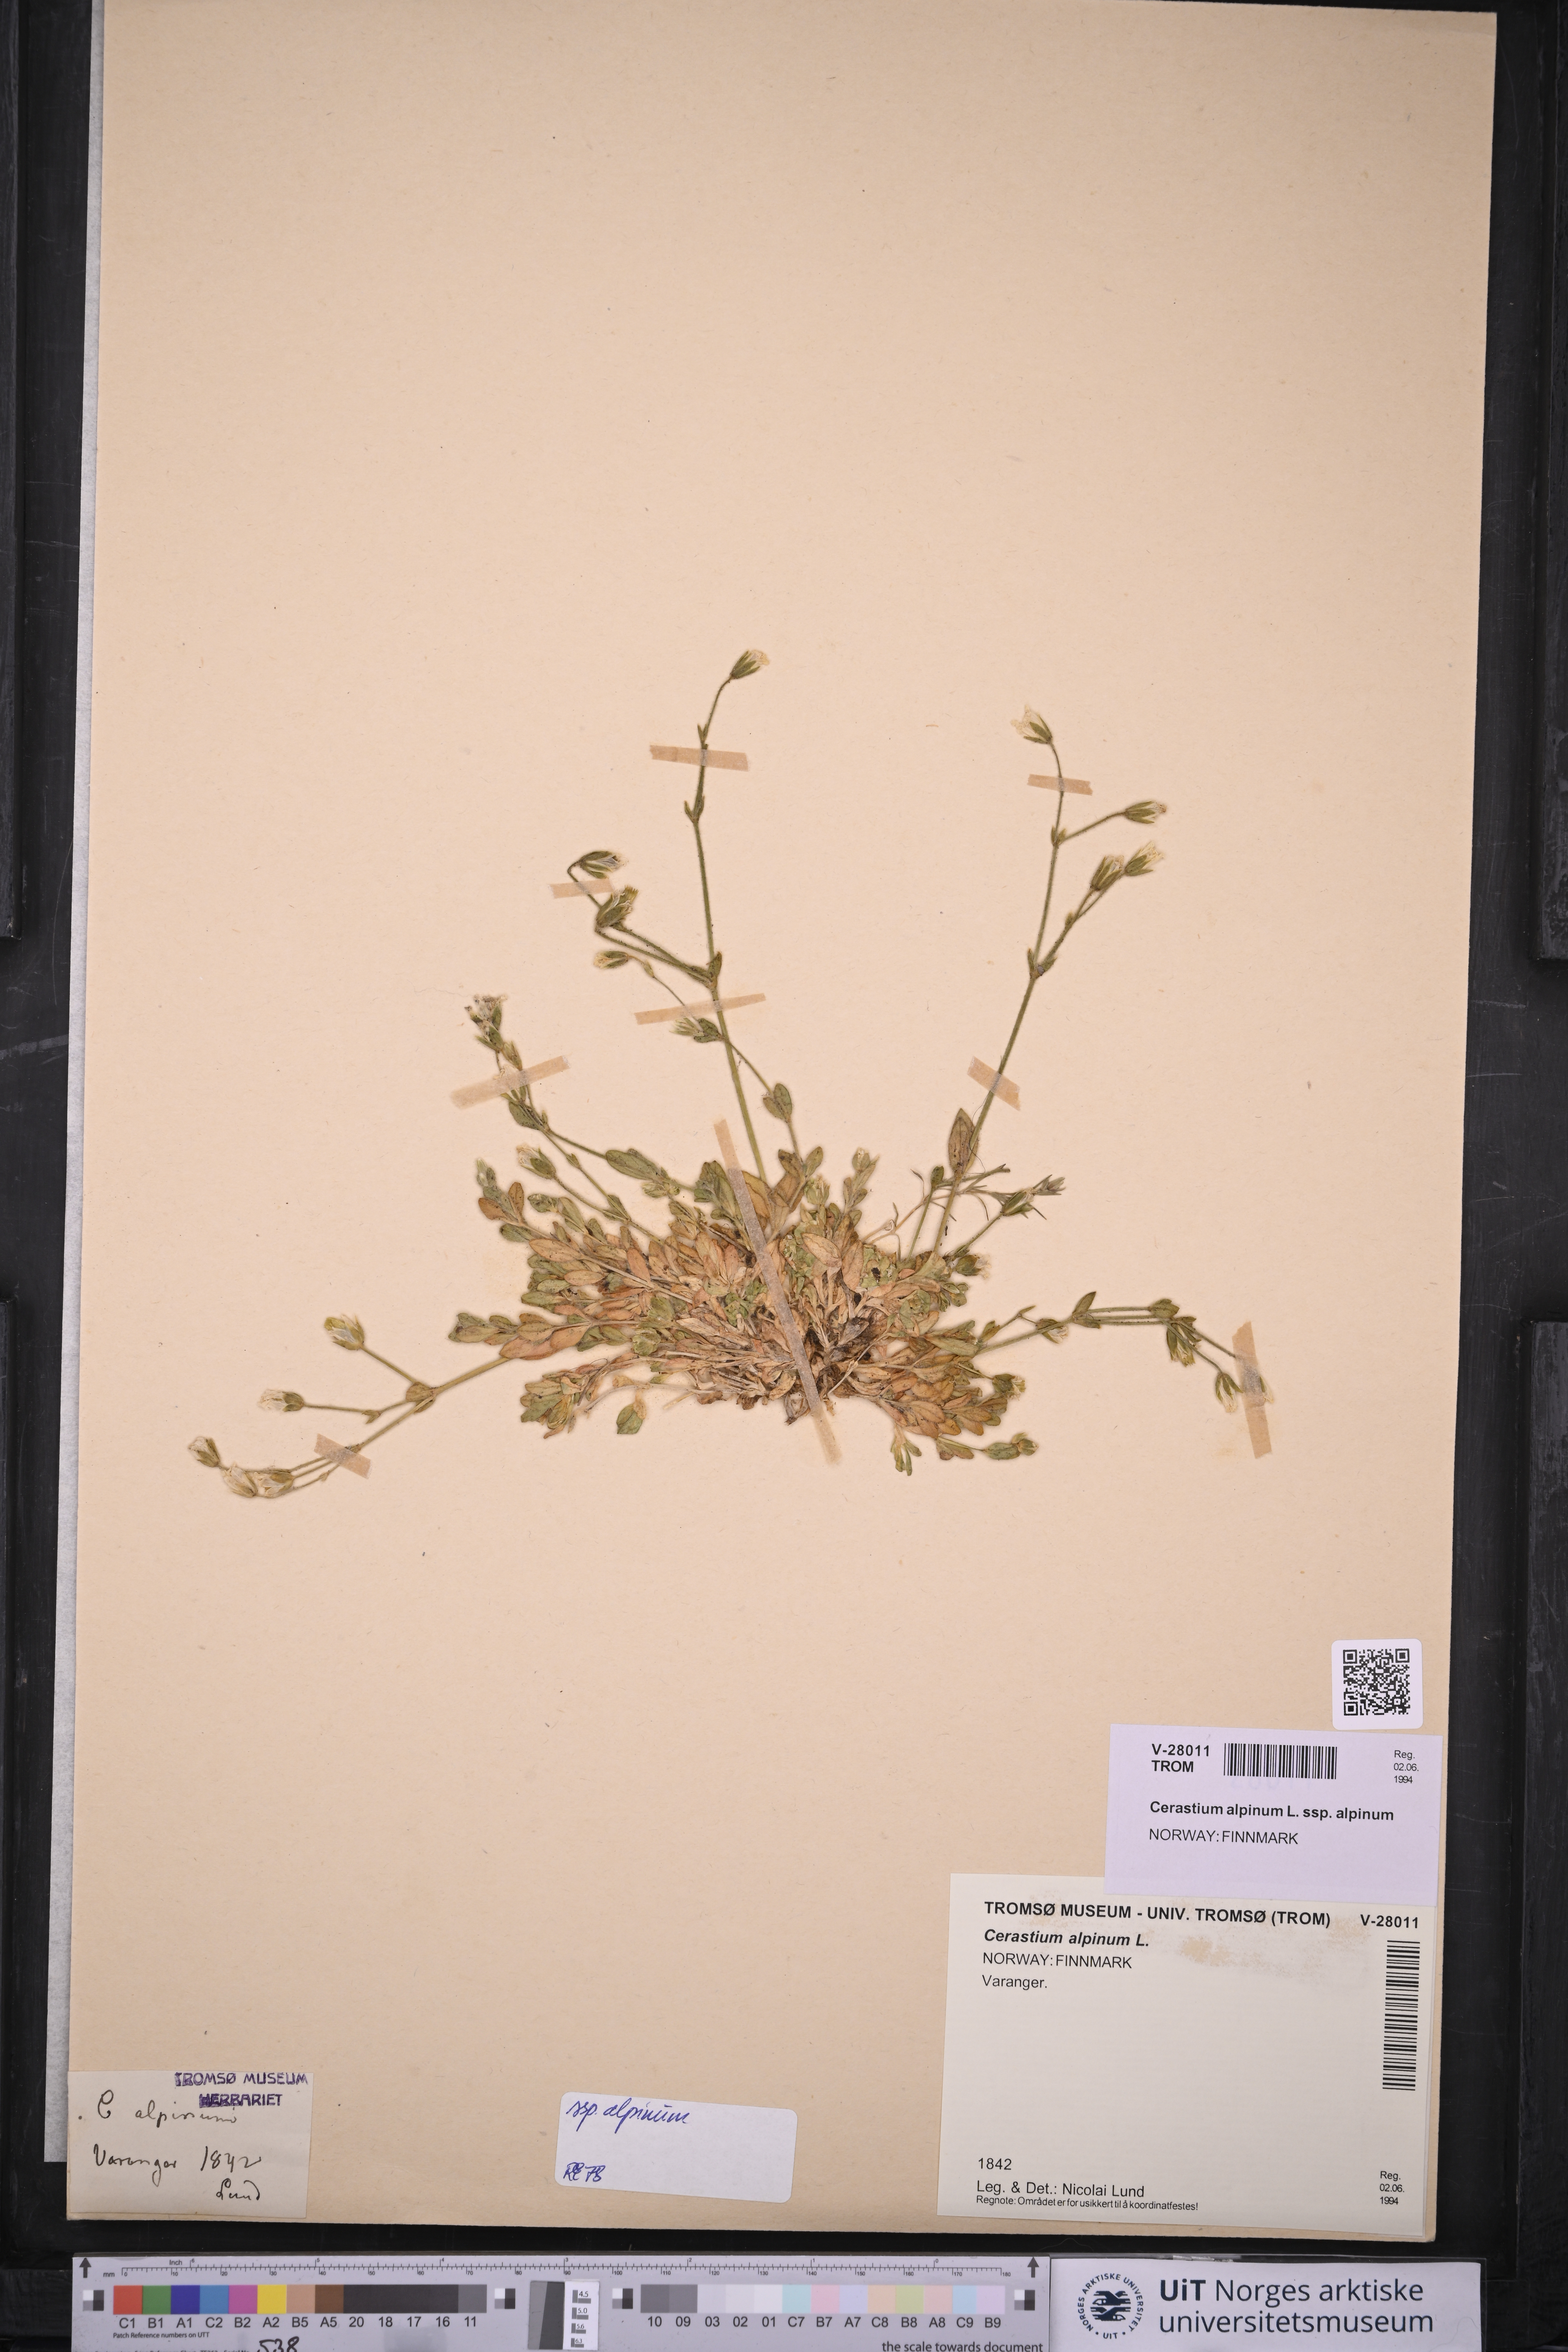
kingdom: Plantae
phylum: Tracheophyta
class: Magnoliopsida
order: Caryophyllales
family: Caryophyllaceae
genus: Cerastium
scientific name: Cerastium alpinum
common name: Alpine mouse-ear
